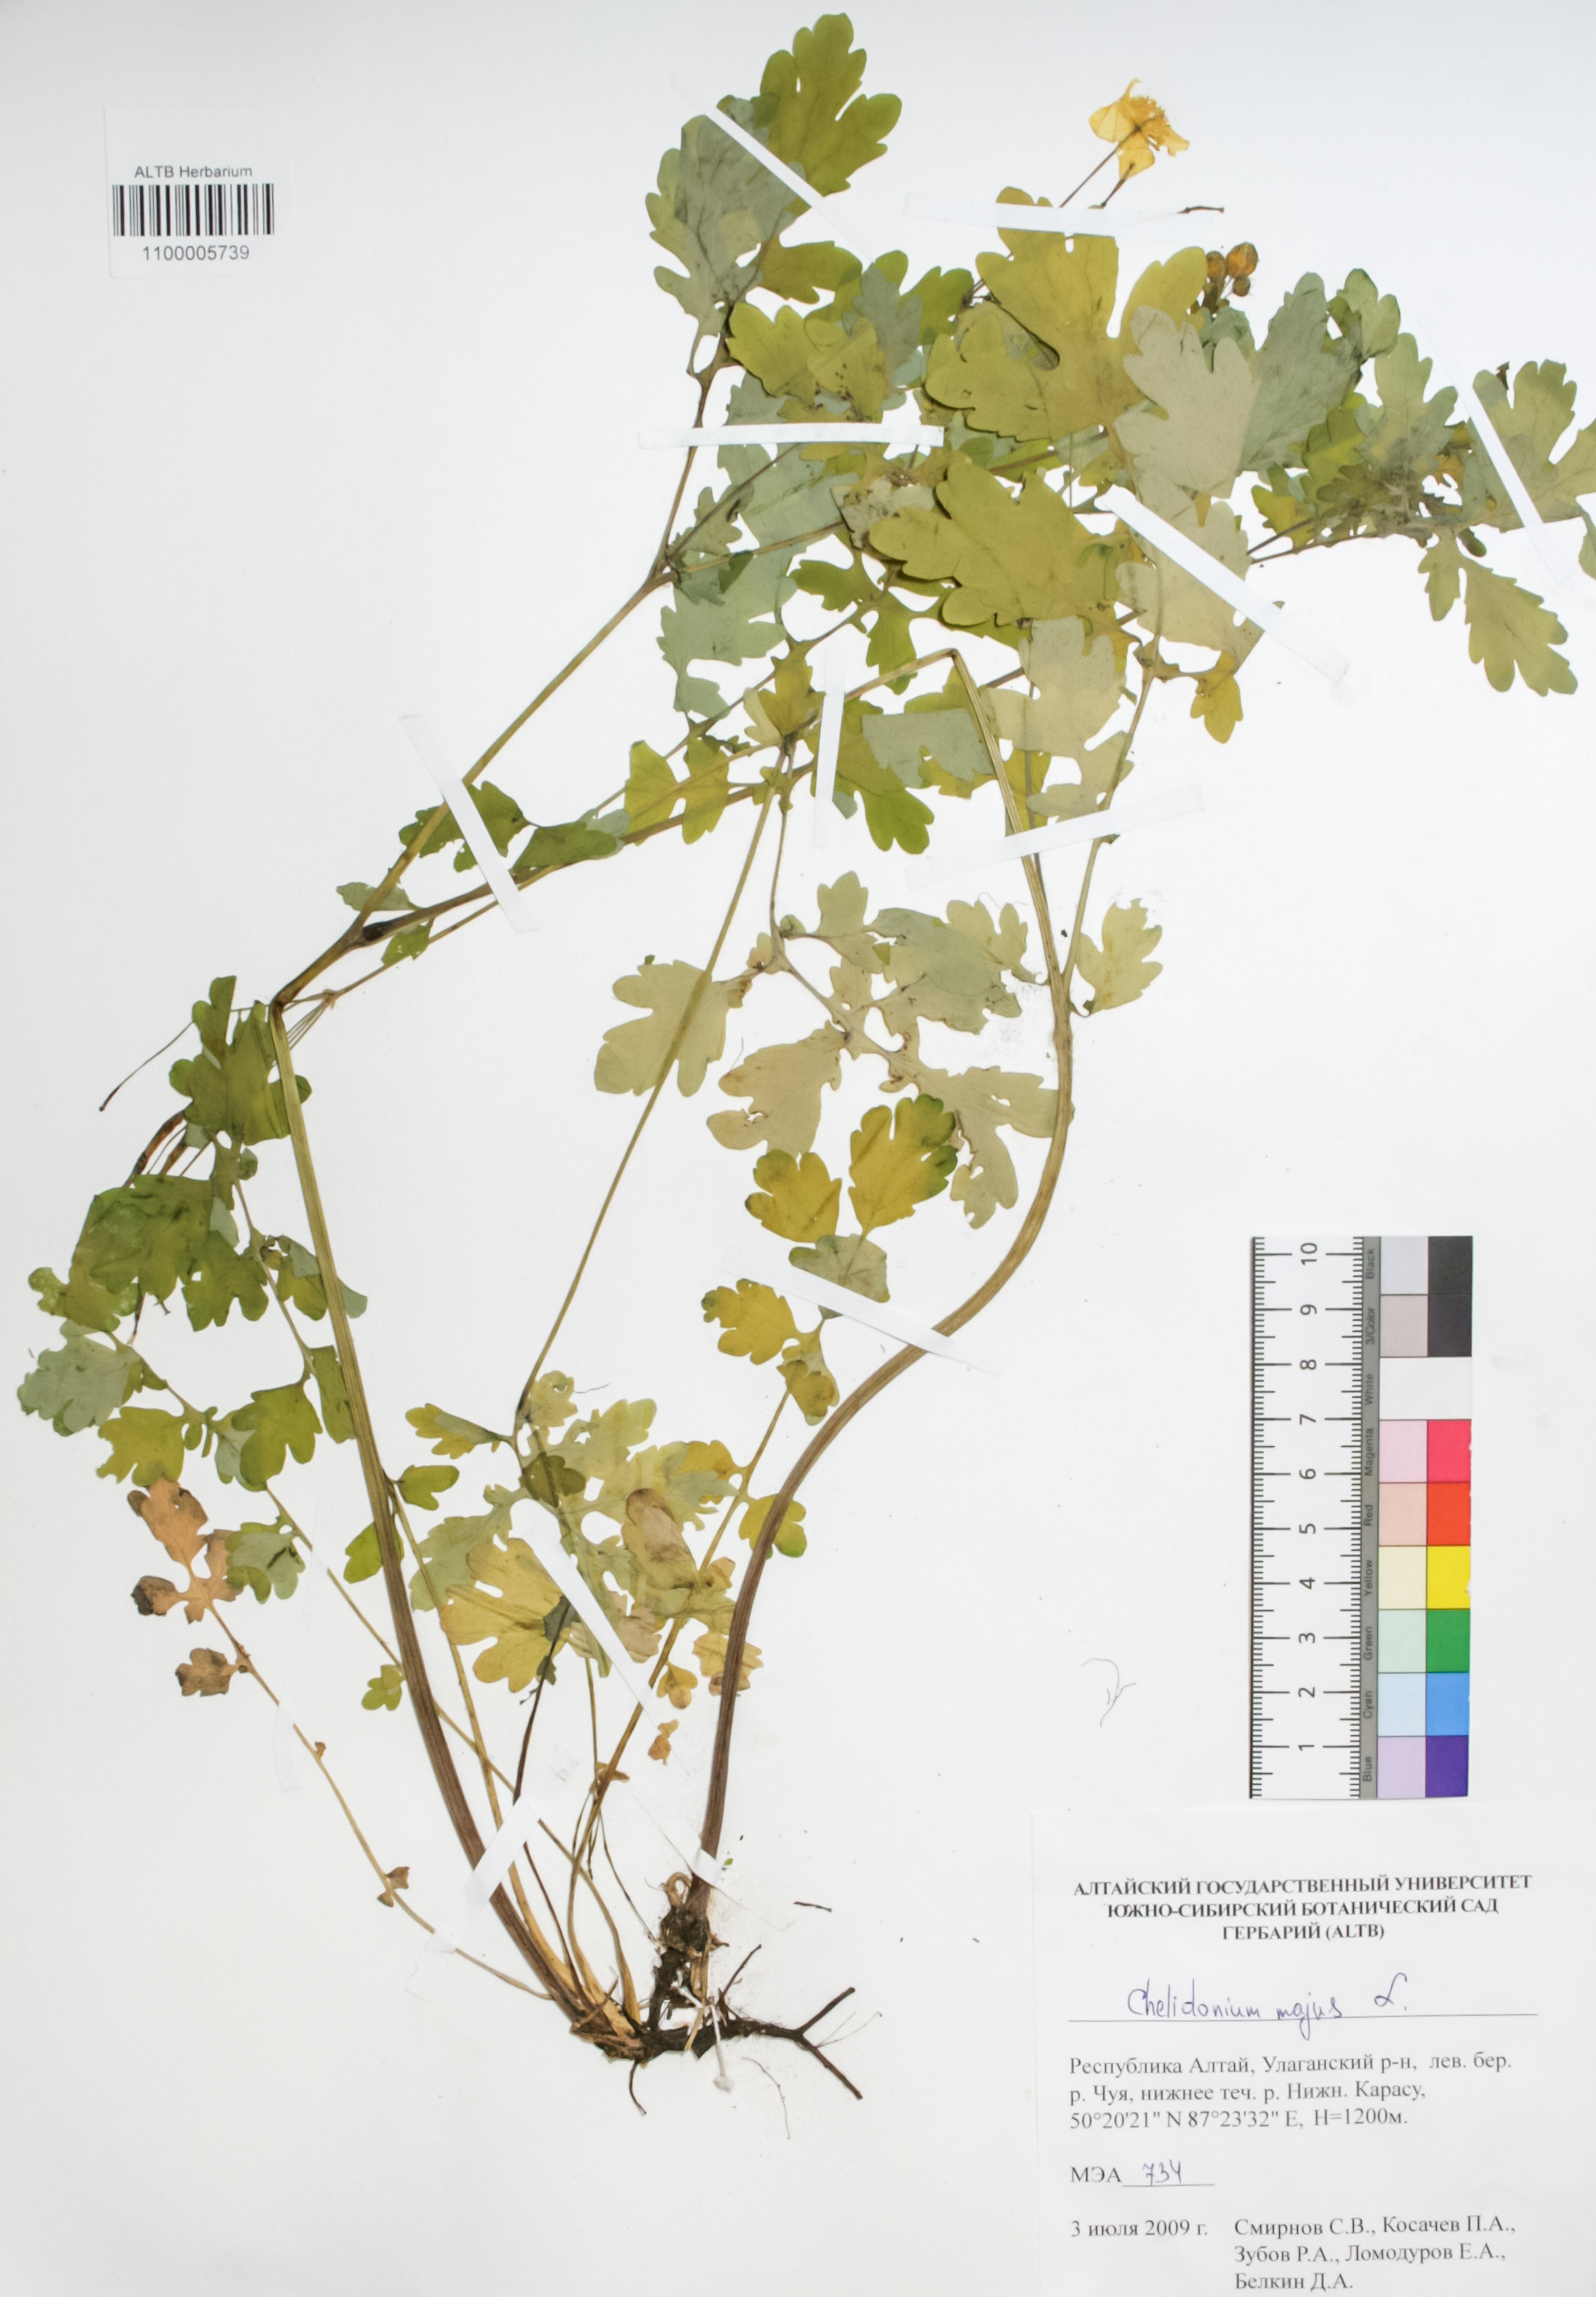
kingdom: Plantae
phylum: Tracheophyta
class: Magnoliopsida
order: Ranunculales
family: Papaveraceae
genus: Chelidonium
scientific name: Chelidonium majus
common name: Greater celandine
